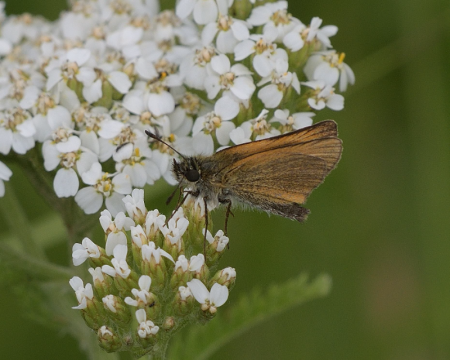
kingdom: Animalia
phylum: Arthropoda
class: Insecta
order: Lepidoptera
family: Hesperiidae
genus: Thymelicus
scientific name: Thymelicus lineola
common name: European Skipper
